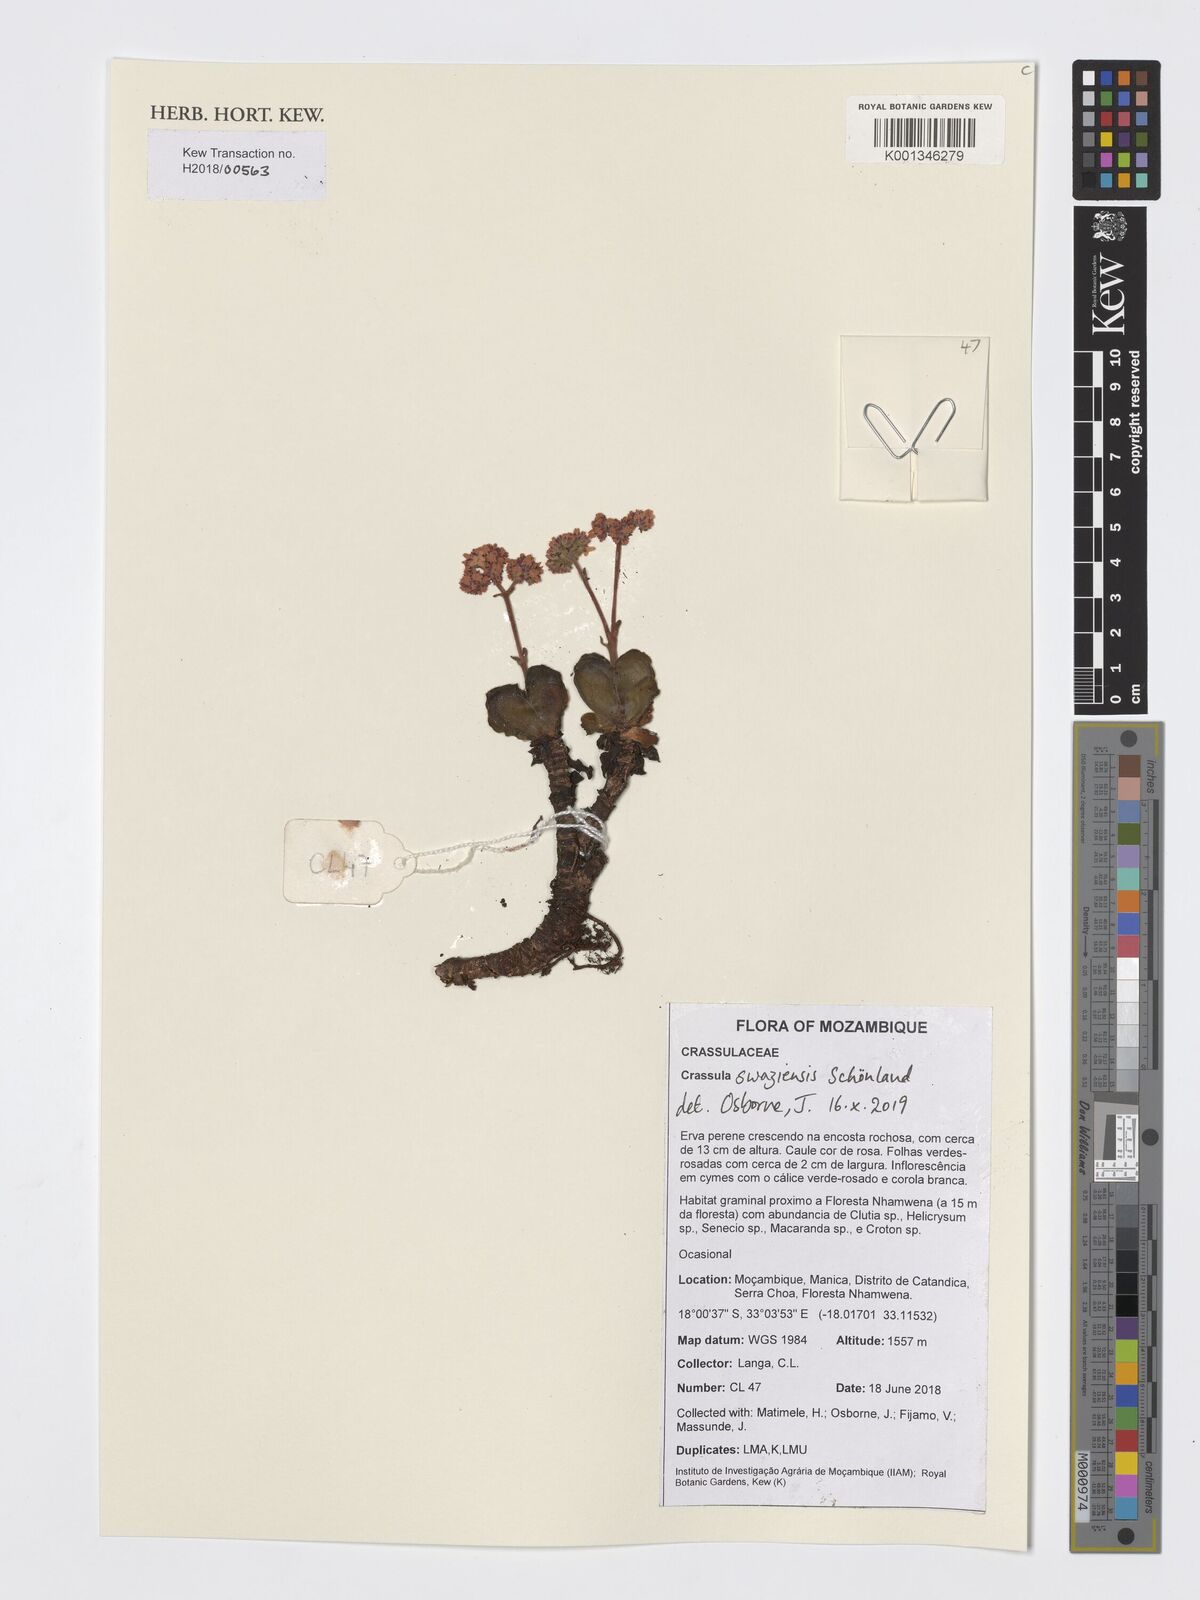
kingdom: Plantae
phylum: Tracheophyta
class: Magnoliopsida
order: Saxifragales
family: Crassulaceae
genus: Crassula
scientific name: Crassula globularioides
